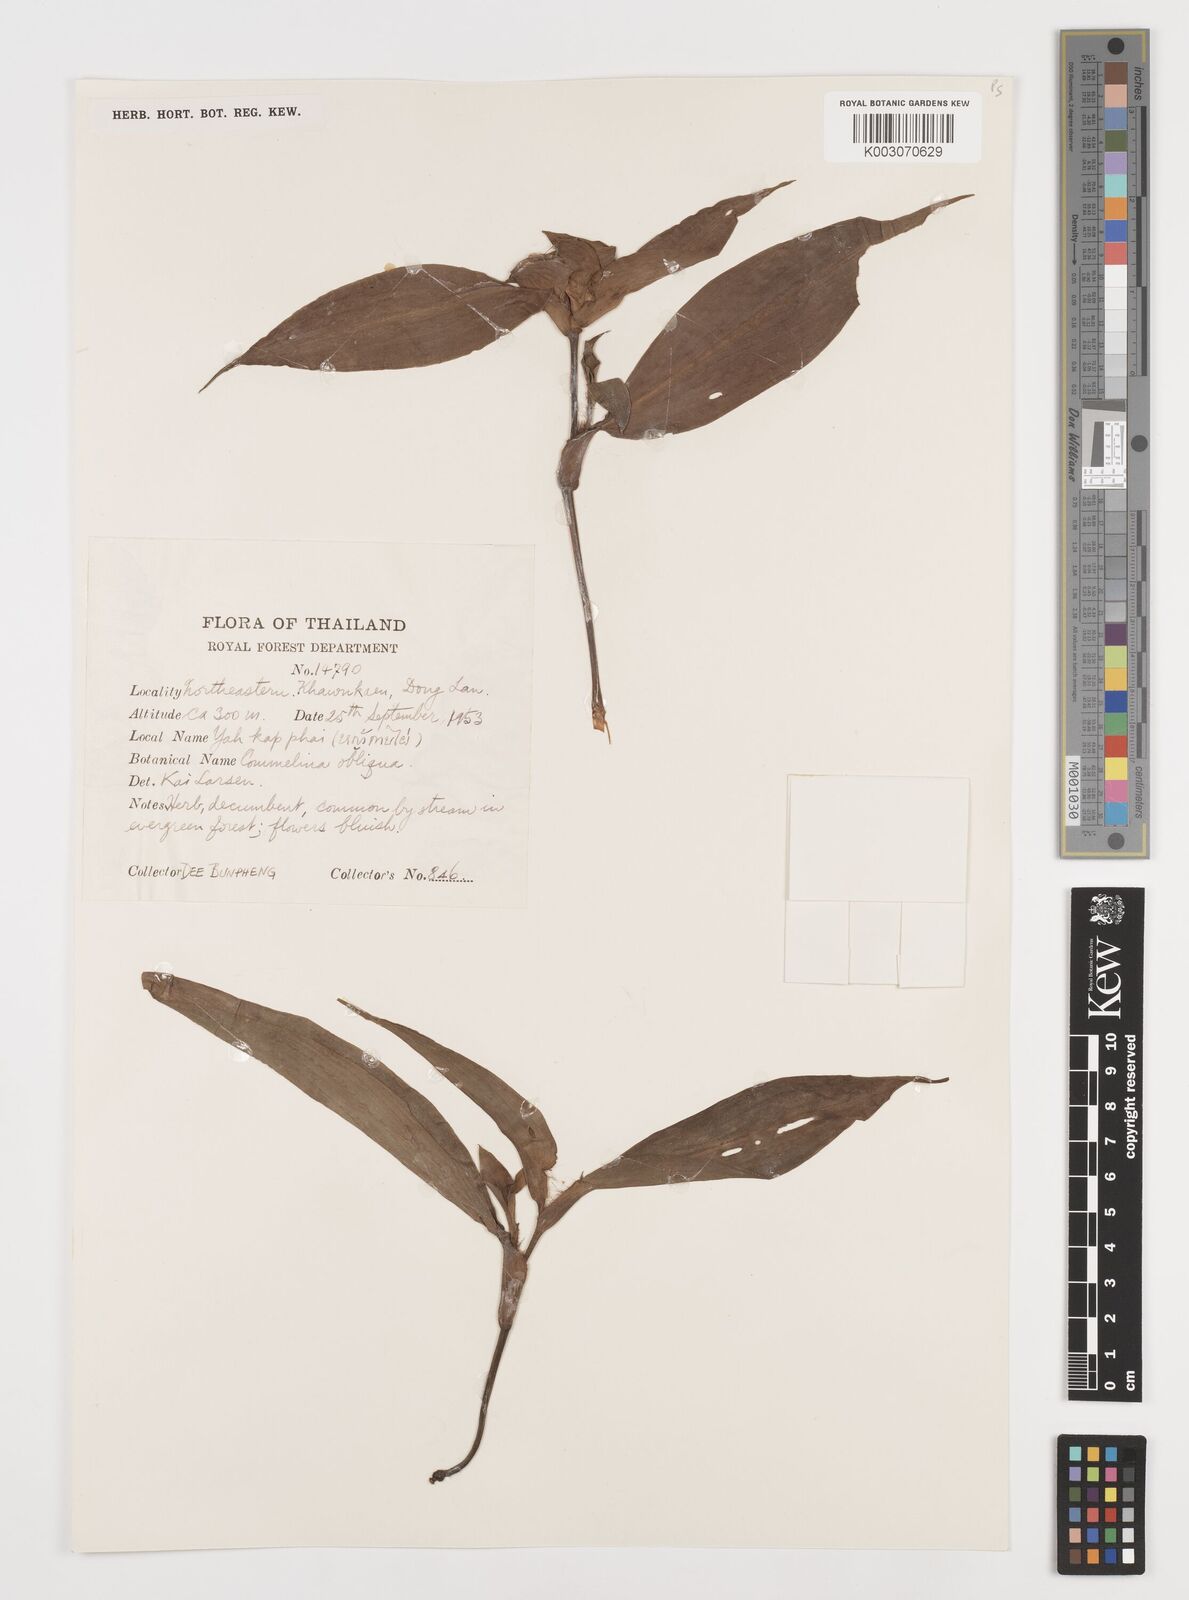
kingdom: Plantae
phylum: Tracheophyta
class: Liliopsida
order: Commelinales
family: Commelinaceae
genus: Commelina
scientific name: Commelina paludosa
